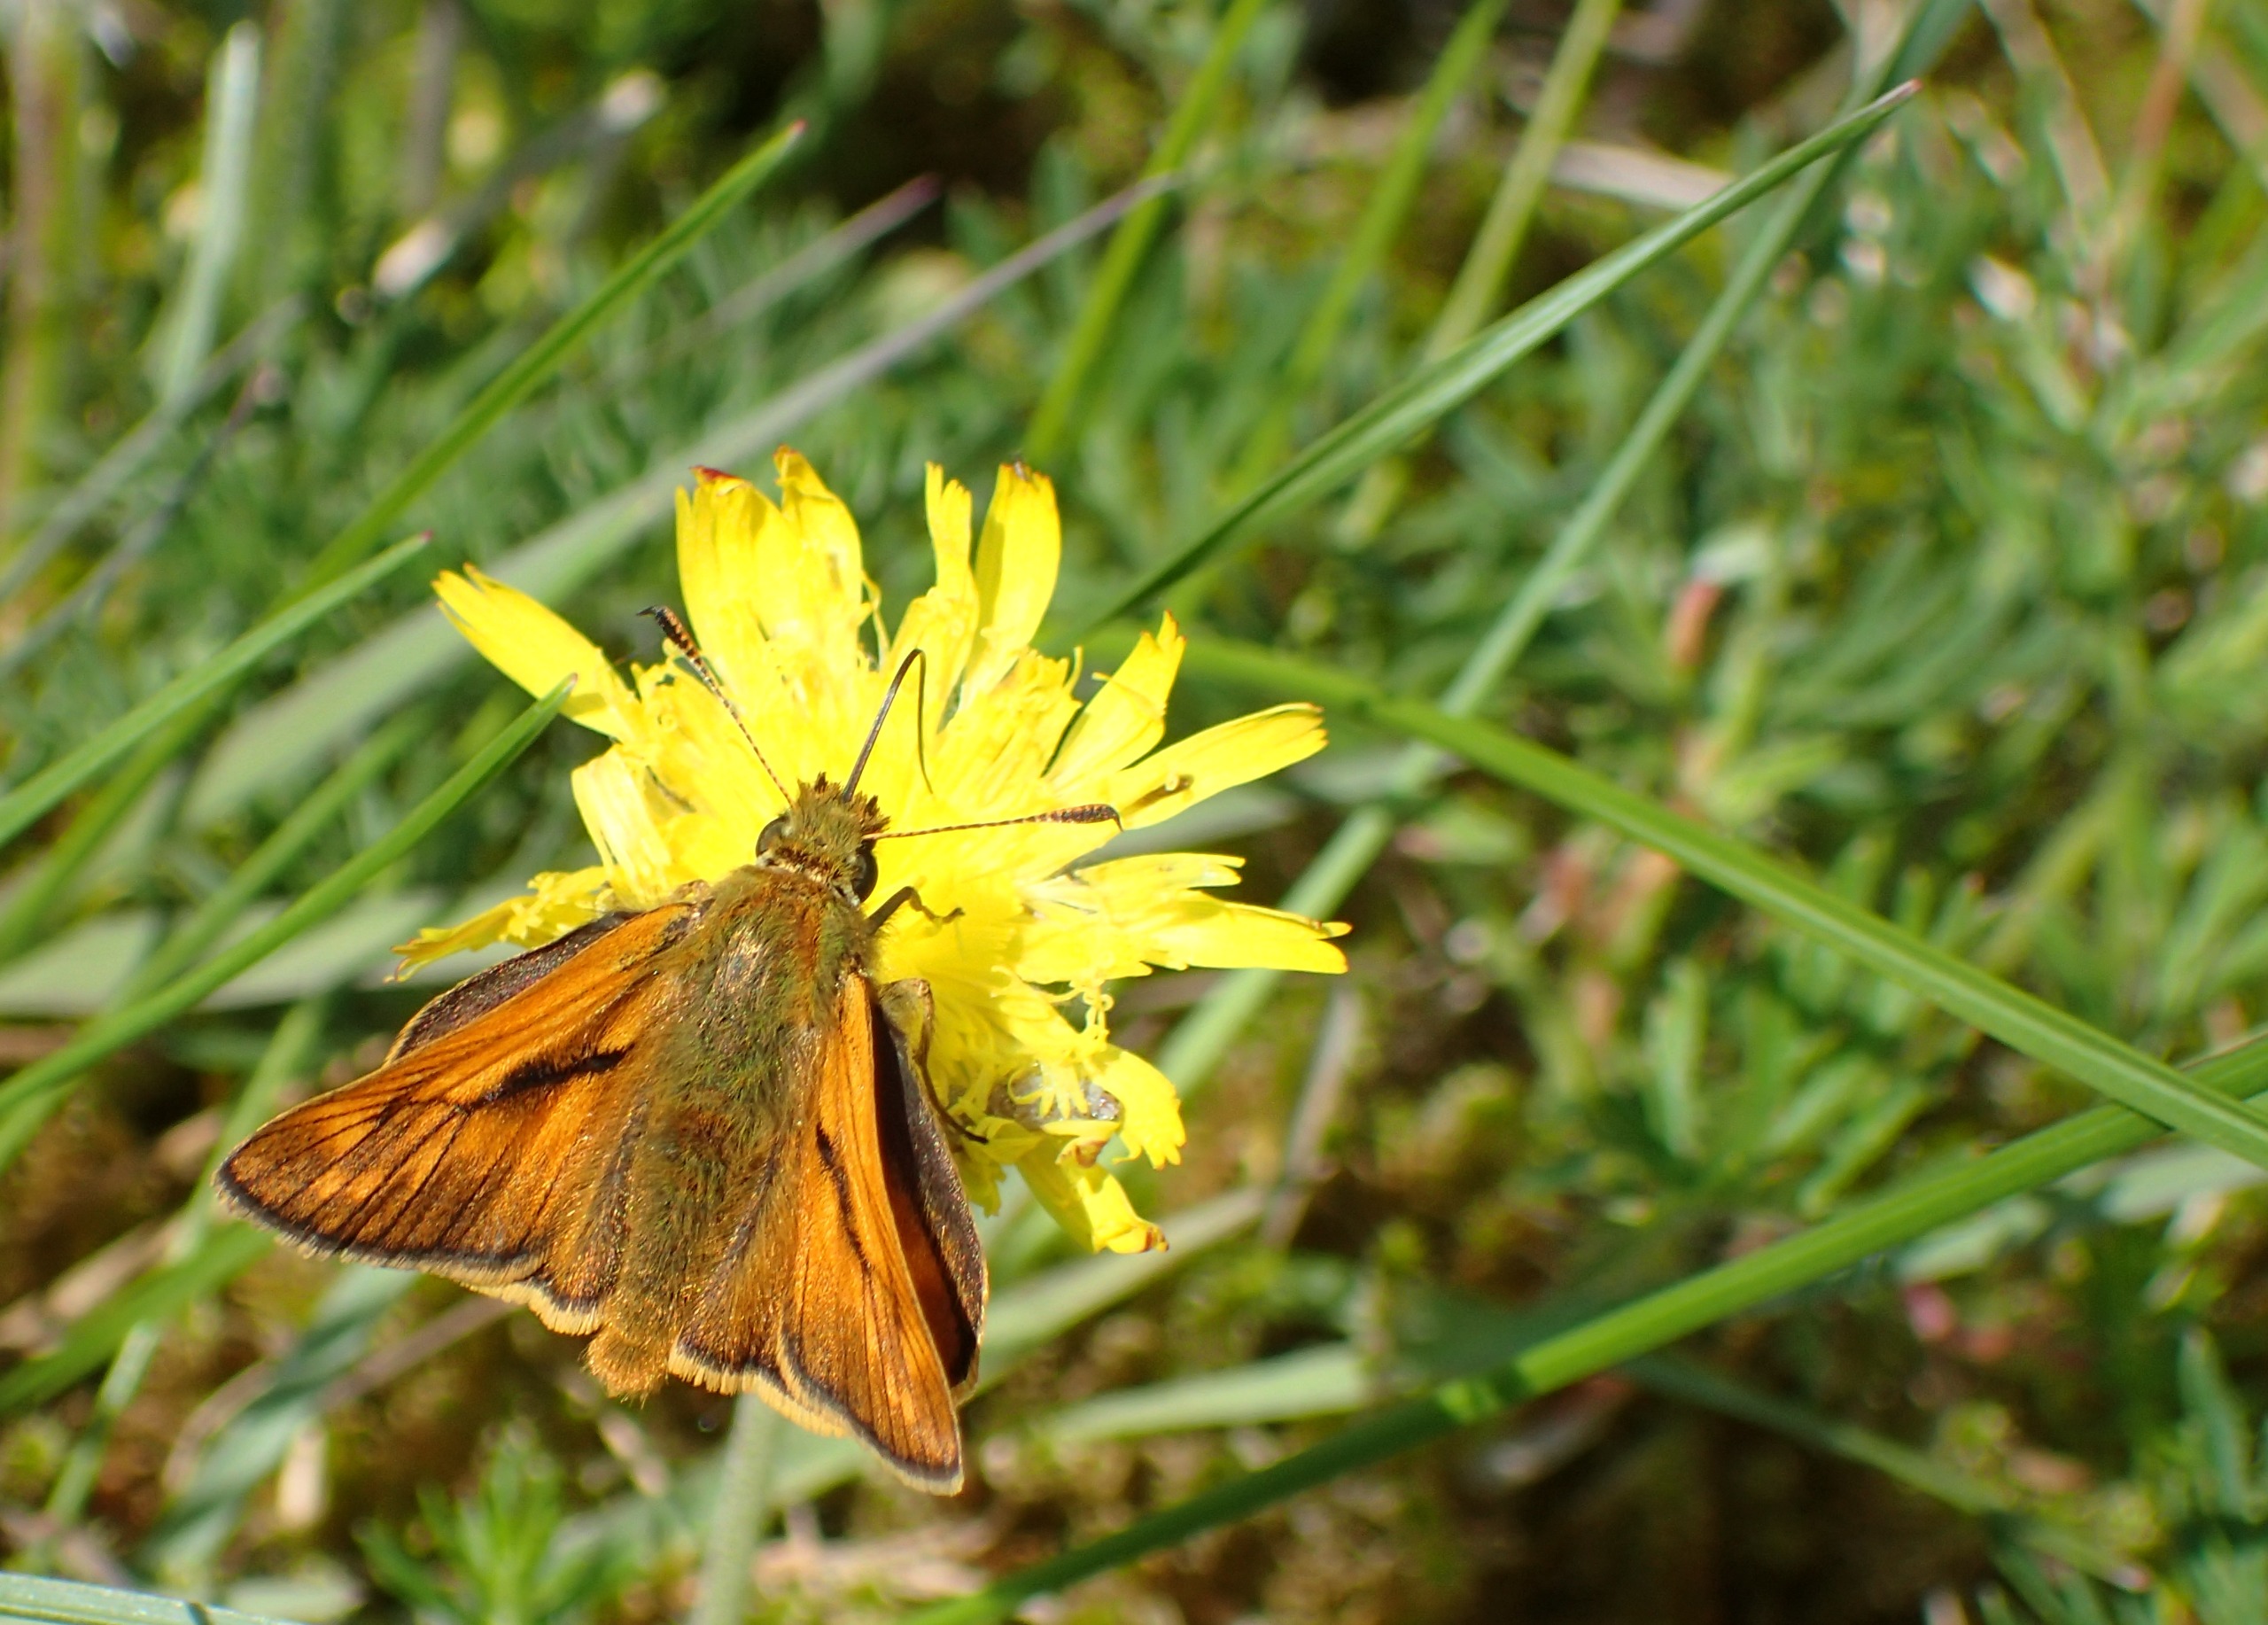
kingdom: Animalia
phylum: Arthropoda
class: Insecta
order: Lepidoptera
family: Hesperiidae
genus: Ochlodes
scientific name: Ochlodes venata
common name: Stor bredpande
